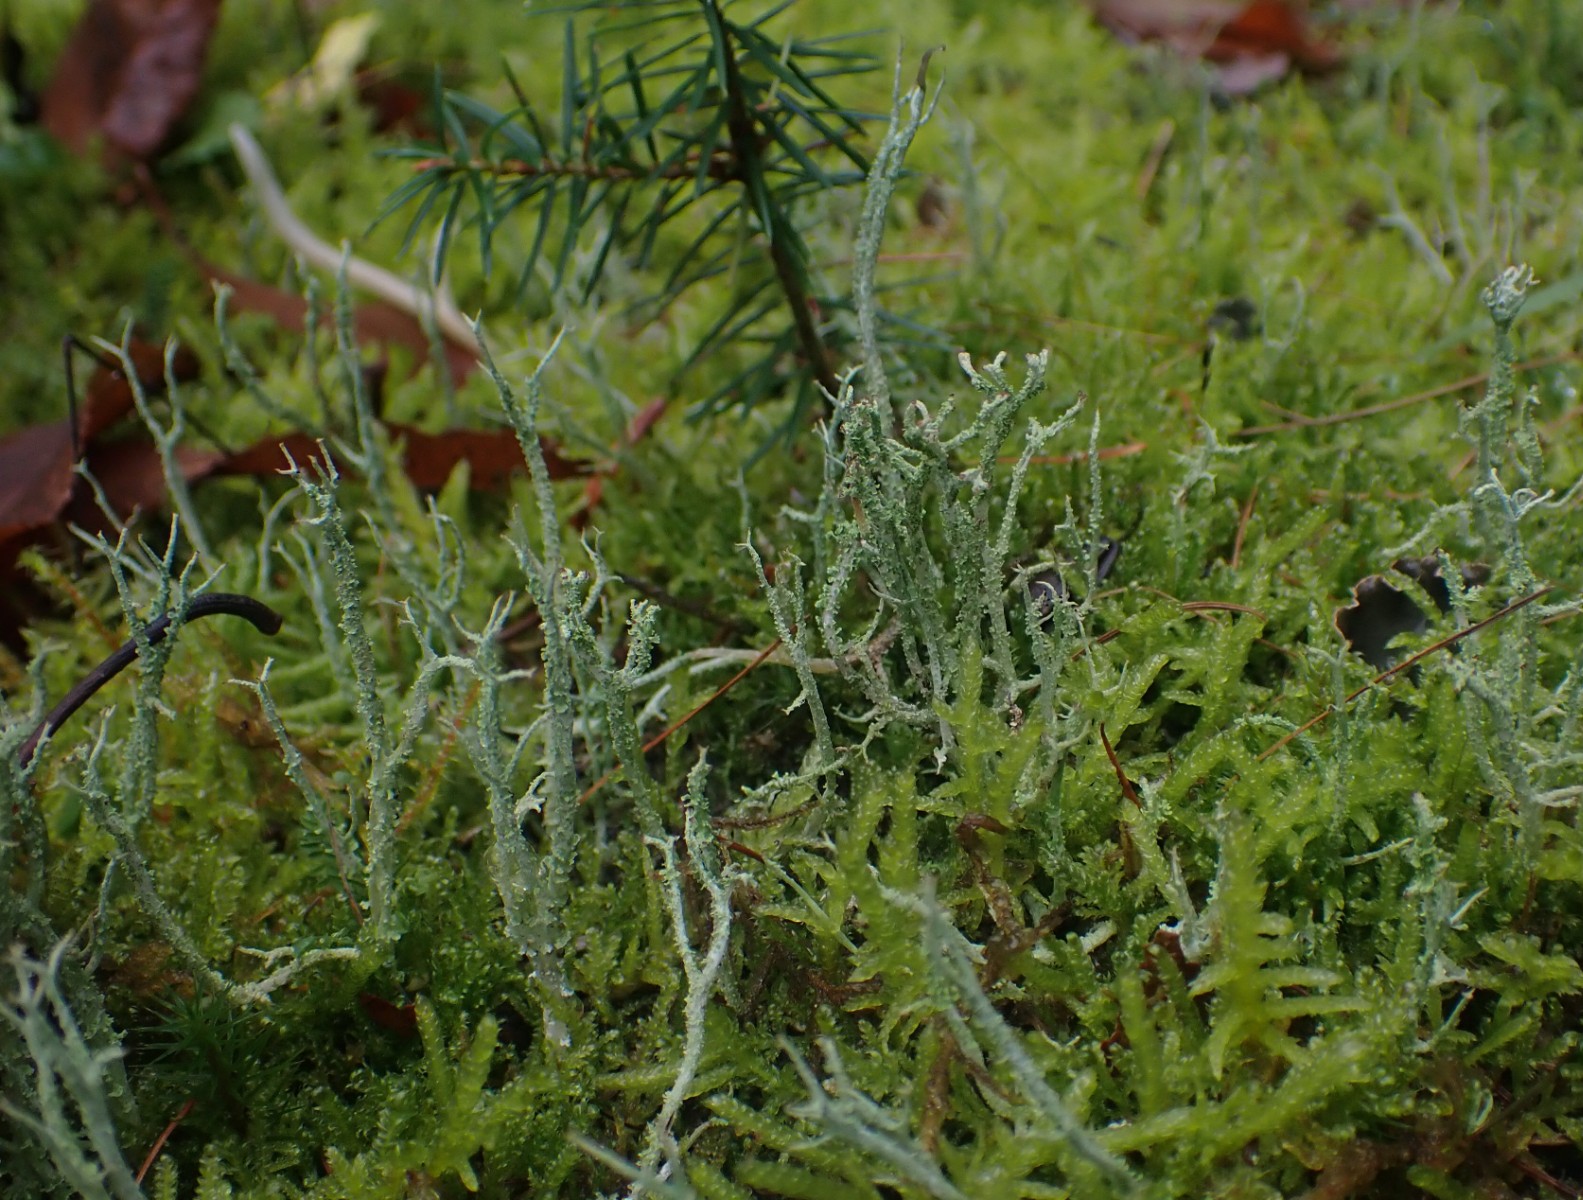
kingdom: Fungi
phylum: Ascomycota
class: Lecanoromycetes
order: Lecanorales
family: Cladoniaceae
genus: Cladonia
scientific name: Cladonia scabriuscula
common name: ru bægerlav
